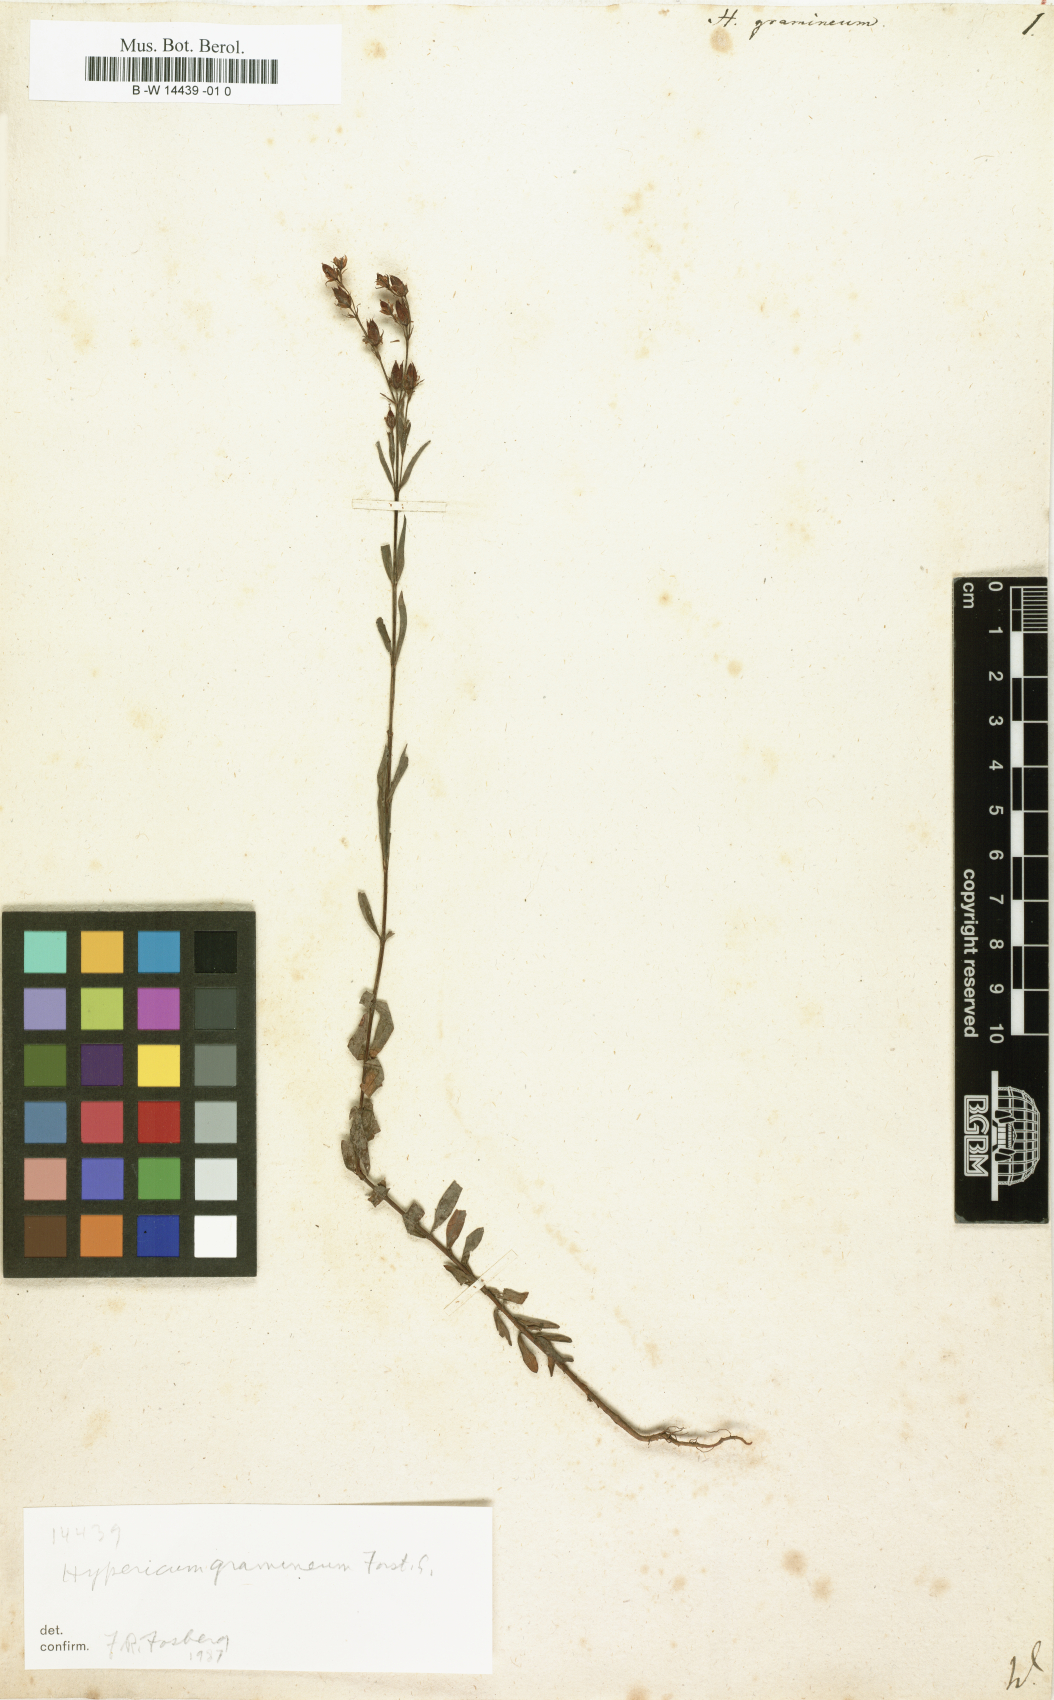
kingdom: Plantae
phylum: Tracheophyta
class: Magnoliopsida
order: Malpighiales
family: Hypericaceae
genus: Hypericum
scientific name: Hypericum gramineum
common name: Grassy st. johnswort
